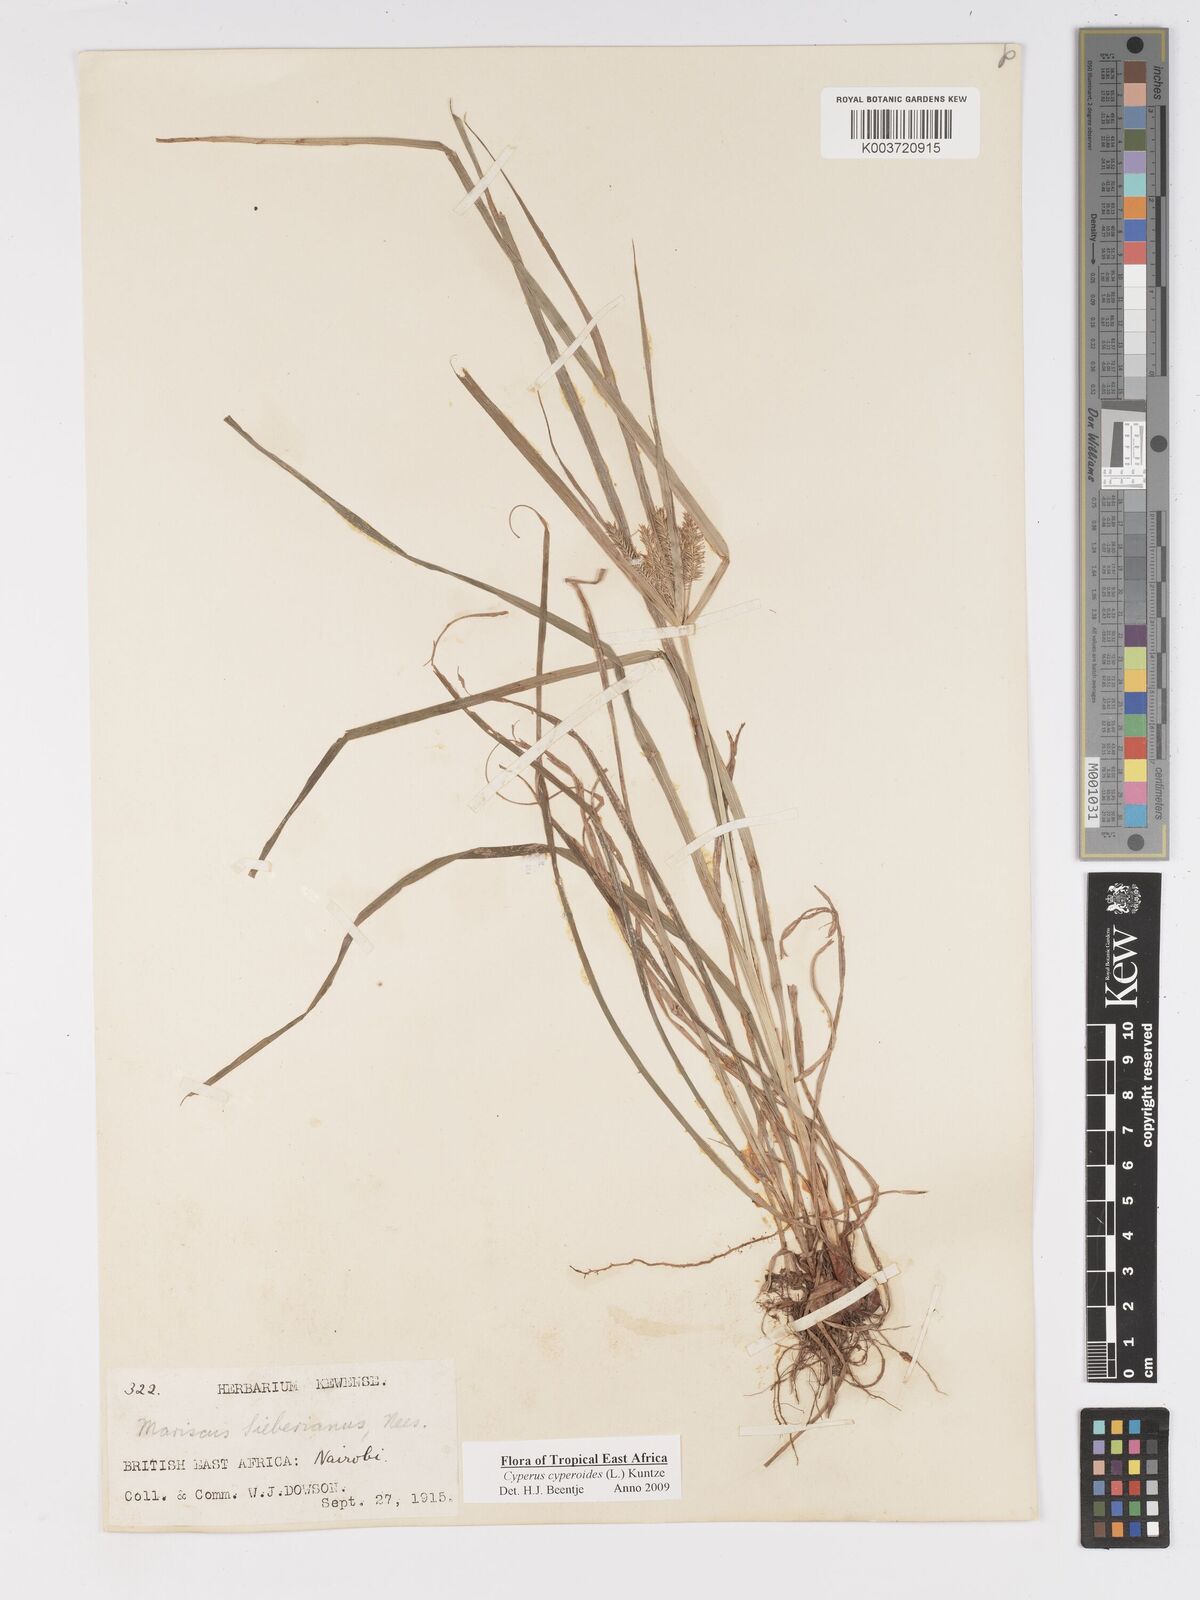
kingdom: Plantae
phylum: Tracheophyta
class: Liliopsida
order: Poales
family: Cyperaceae
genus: Cyperus
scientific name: Cyperus cyperoides
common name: Pacific island flat sedge
